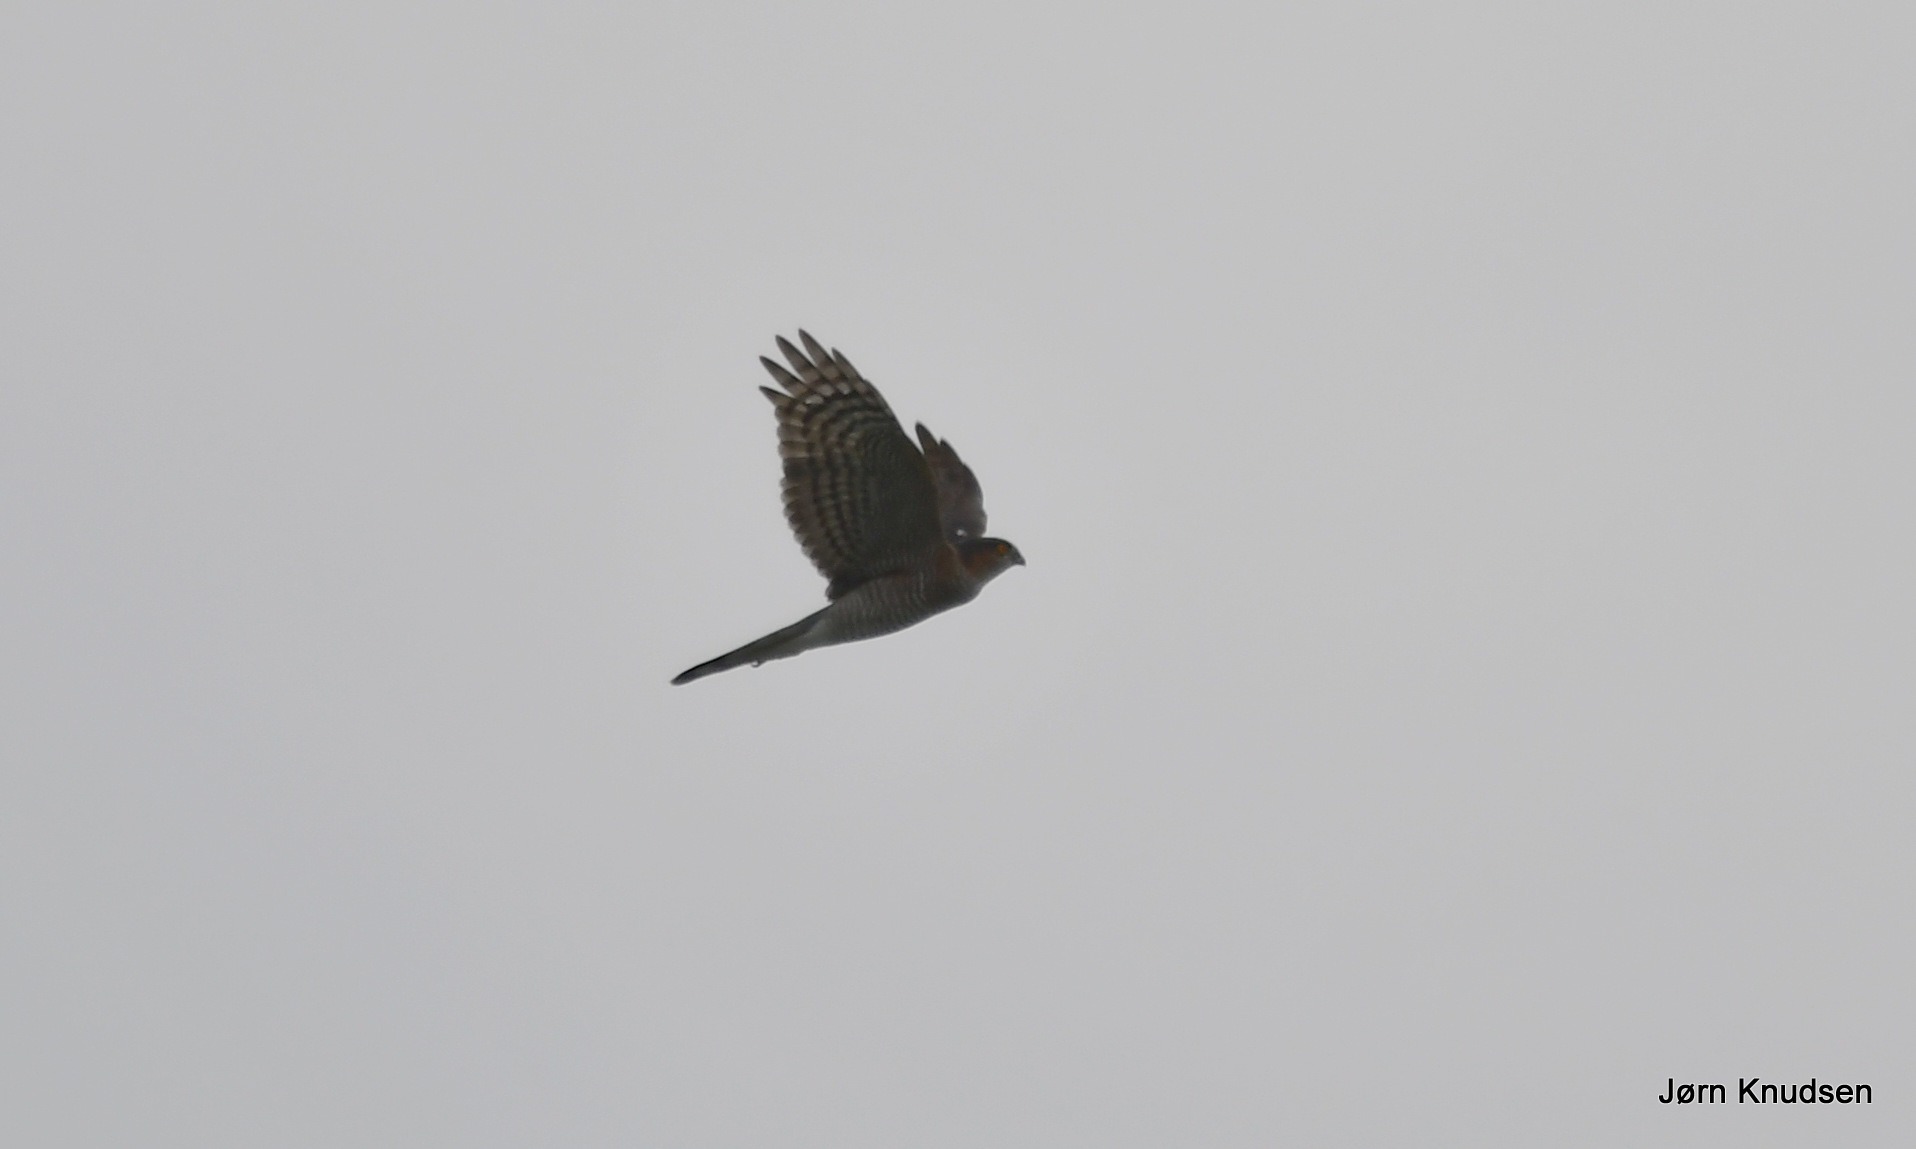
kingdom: Animalia
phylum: Chordata
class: Aves
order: Accipitriformes
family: Accipitridae
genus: Accipiter
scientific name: Accipiter nisus
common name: Spurvehøg
